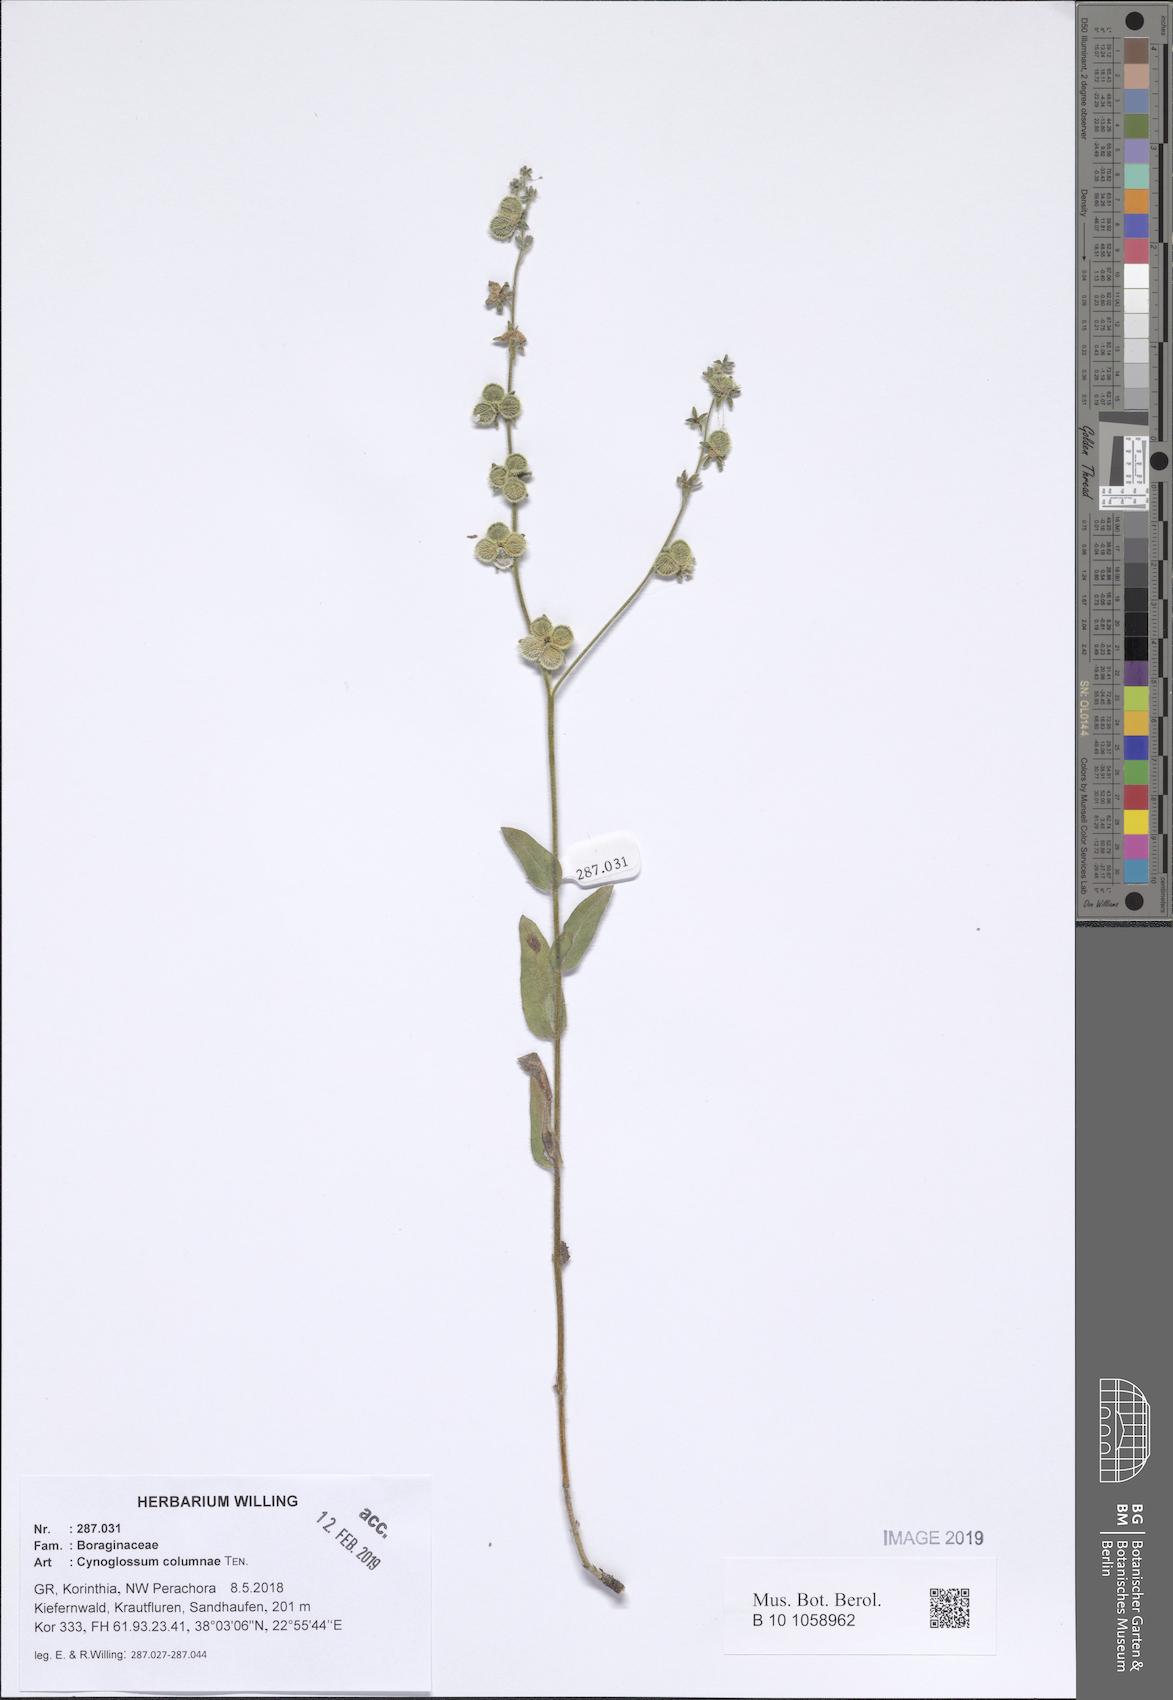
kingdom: Plantae
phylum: Tracheophyta
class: Magnoliopsida
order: Boraginales
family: Boraginaceae
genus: Rindera
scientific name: Rindera columnae
